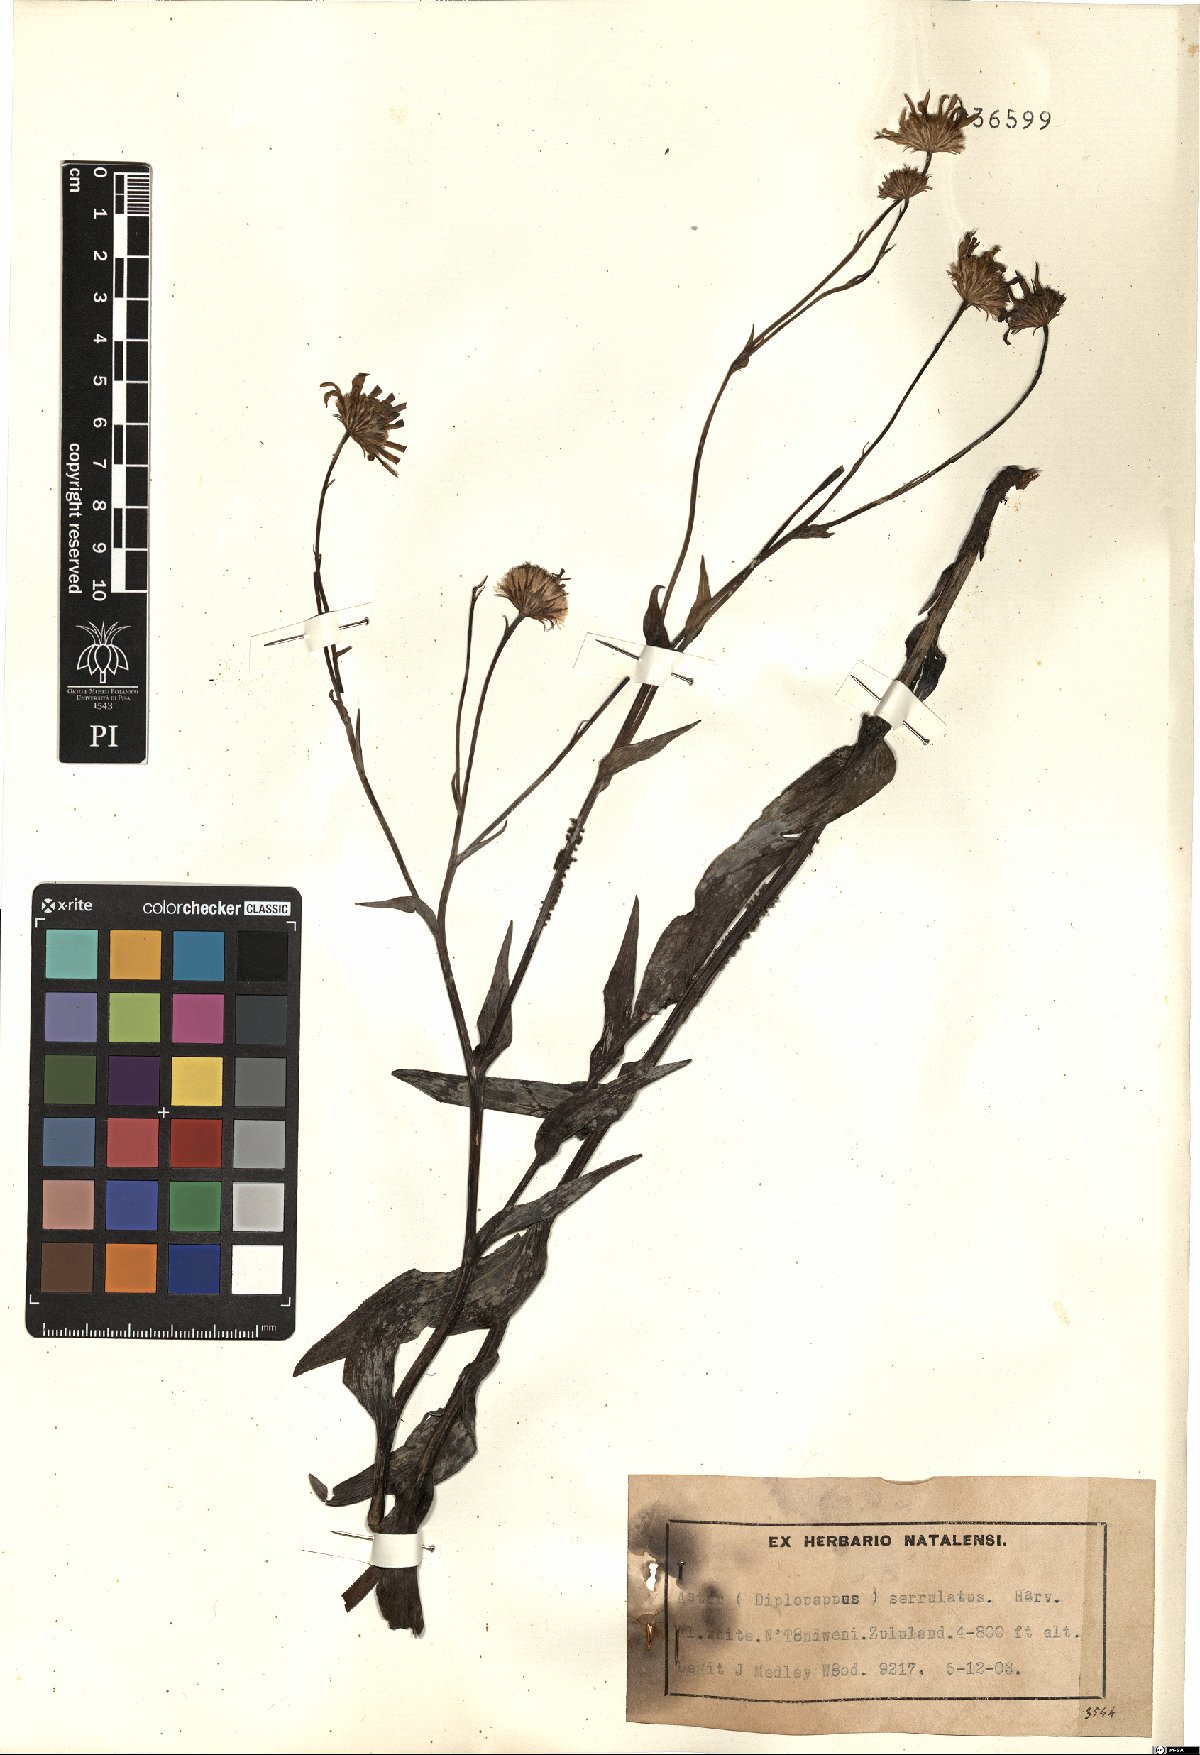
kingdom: Plantae
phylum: Tracheophyta
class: Magnoliopsida
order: Asterales
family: Asteraceae
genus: Afroaster
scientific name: Afroaster serrulatus
